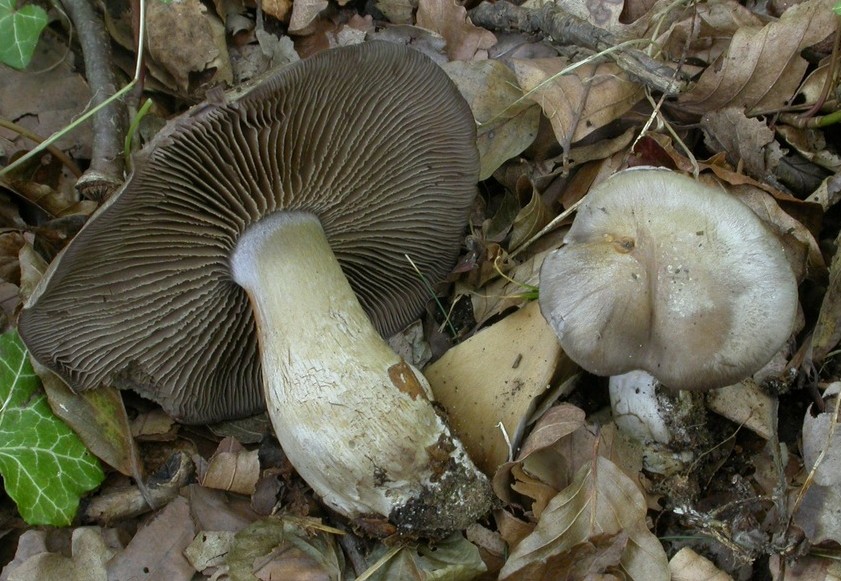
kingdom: Fungi
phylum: Basidiomycota
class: Agaricomycetes
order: Agaricales
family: Cortinariaceae
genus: Cortinarius
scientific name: Cortinarius
